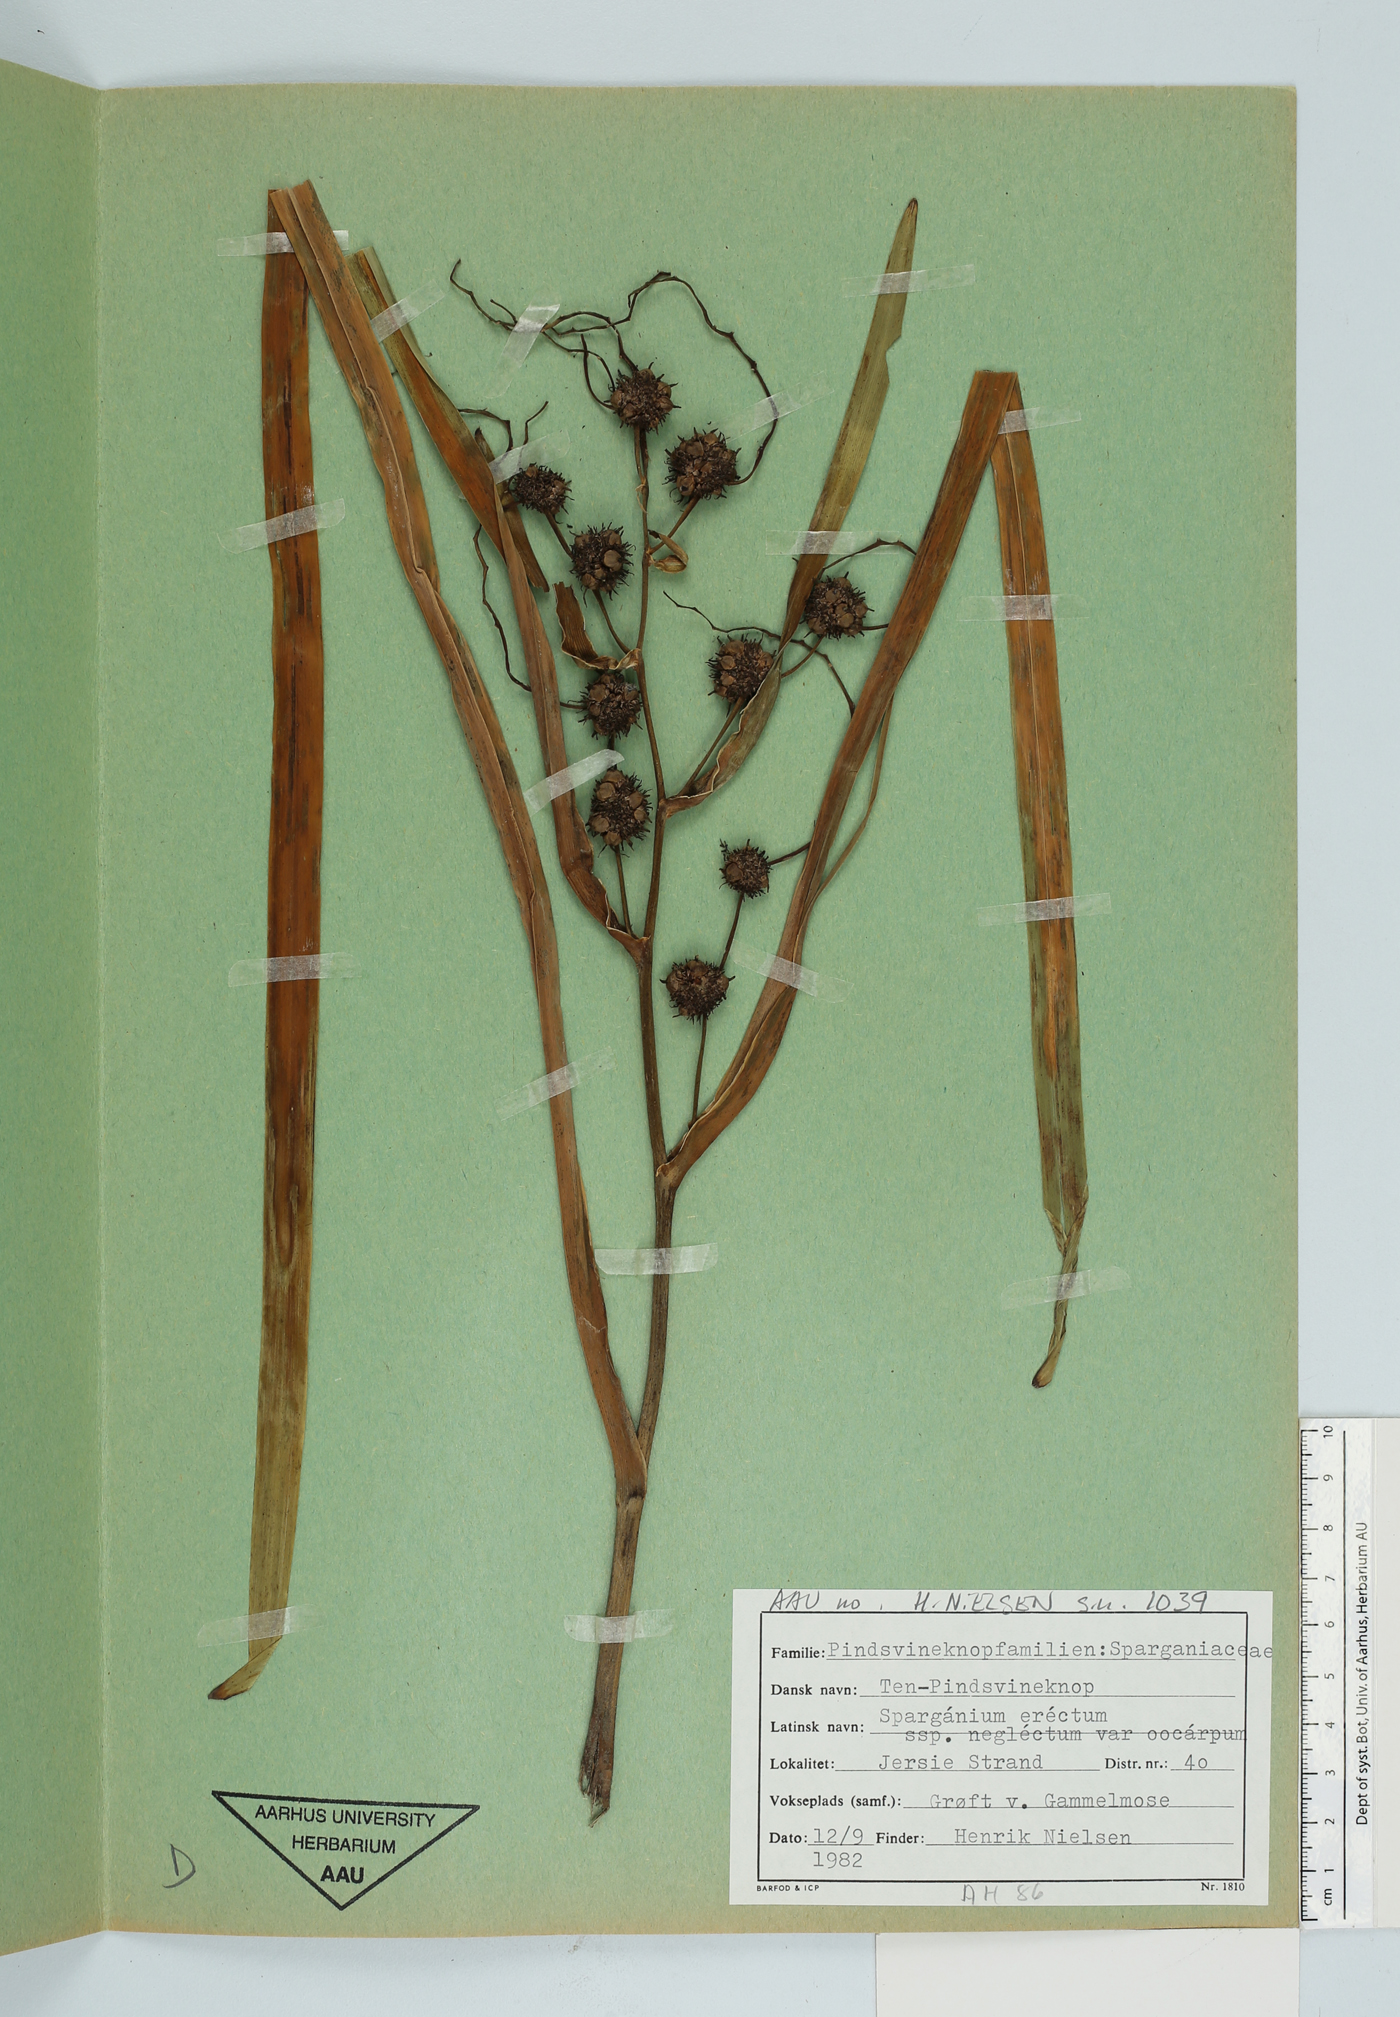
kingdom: Plantae
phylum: Tracheophyta
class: Liliopsida
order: Poales
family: Typhaceae
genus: Sparganium
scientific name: Sparganium erectum
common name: Branched bur-reed
